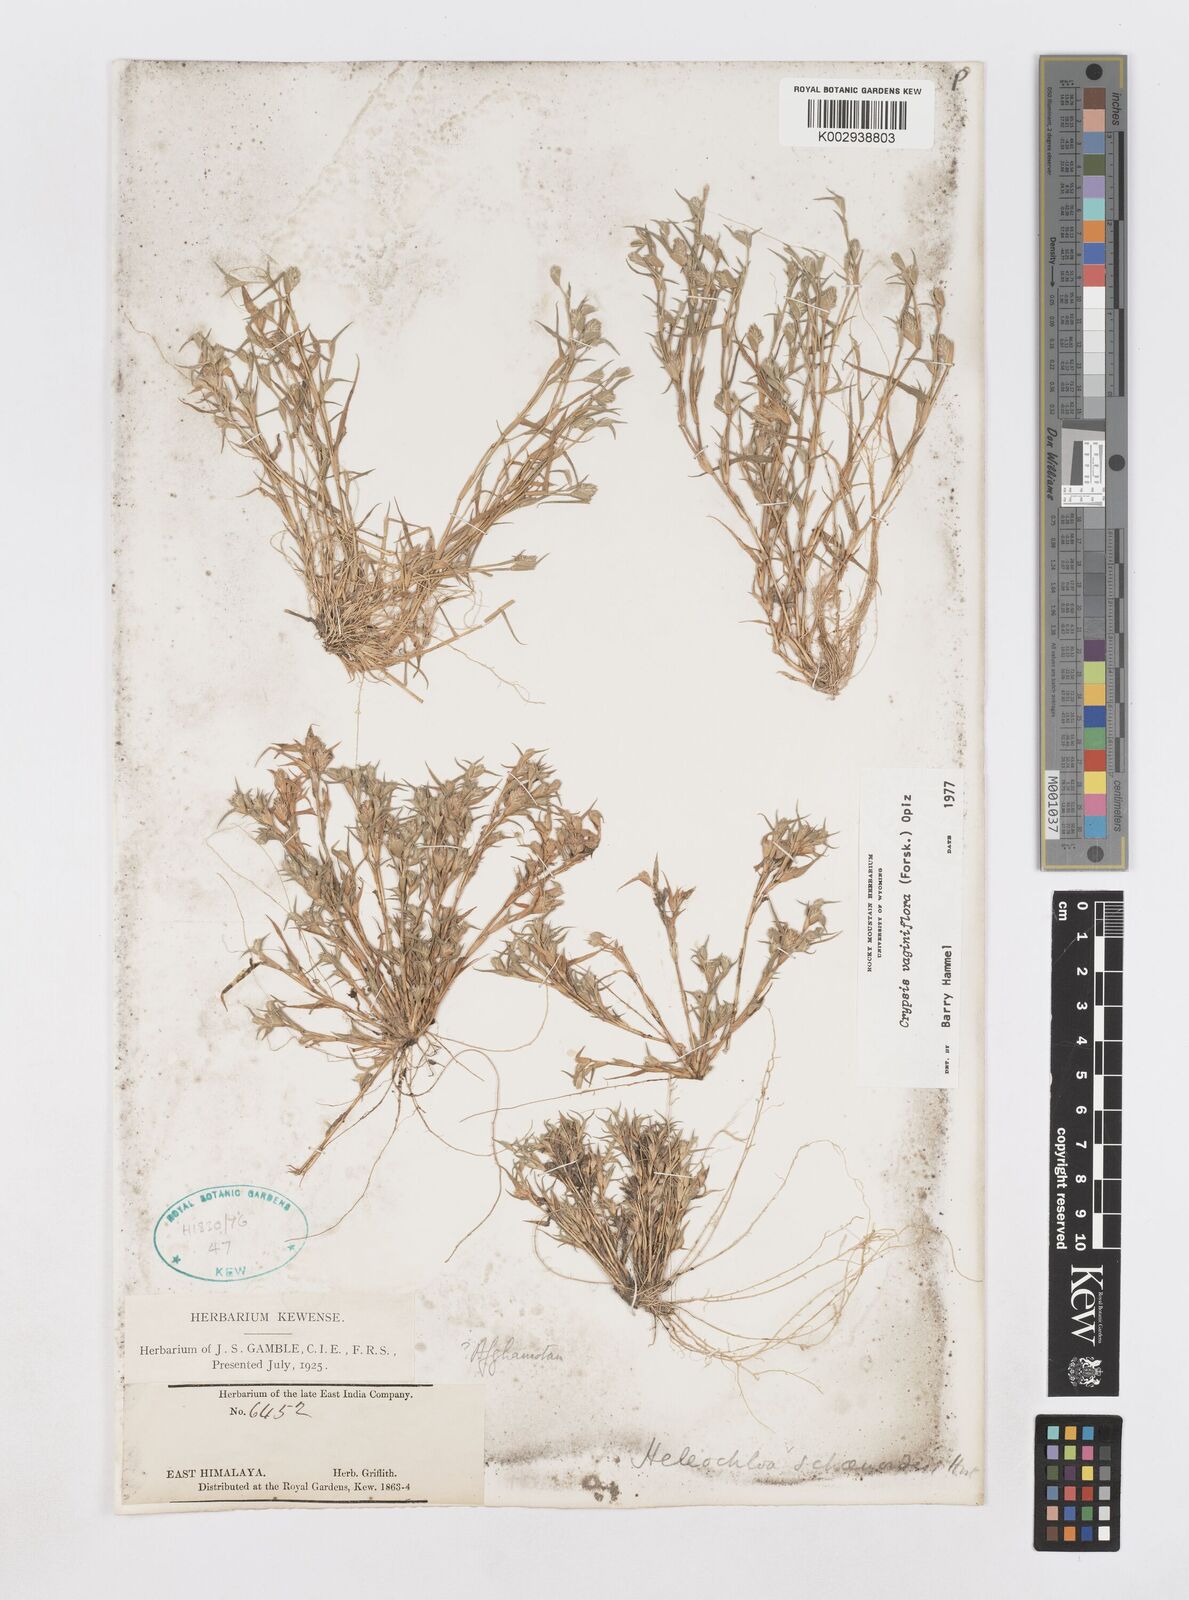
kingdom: Plantae
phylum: Tracheophyta
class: Liliopsida
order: Poales
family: Poaceae
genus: Sporobolus
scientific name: Sporobolus niliacus
